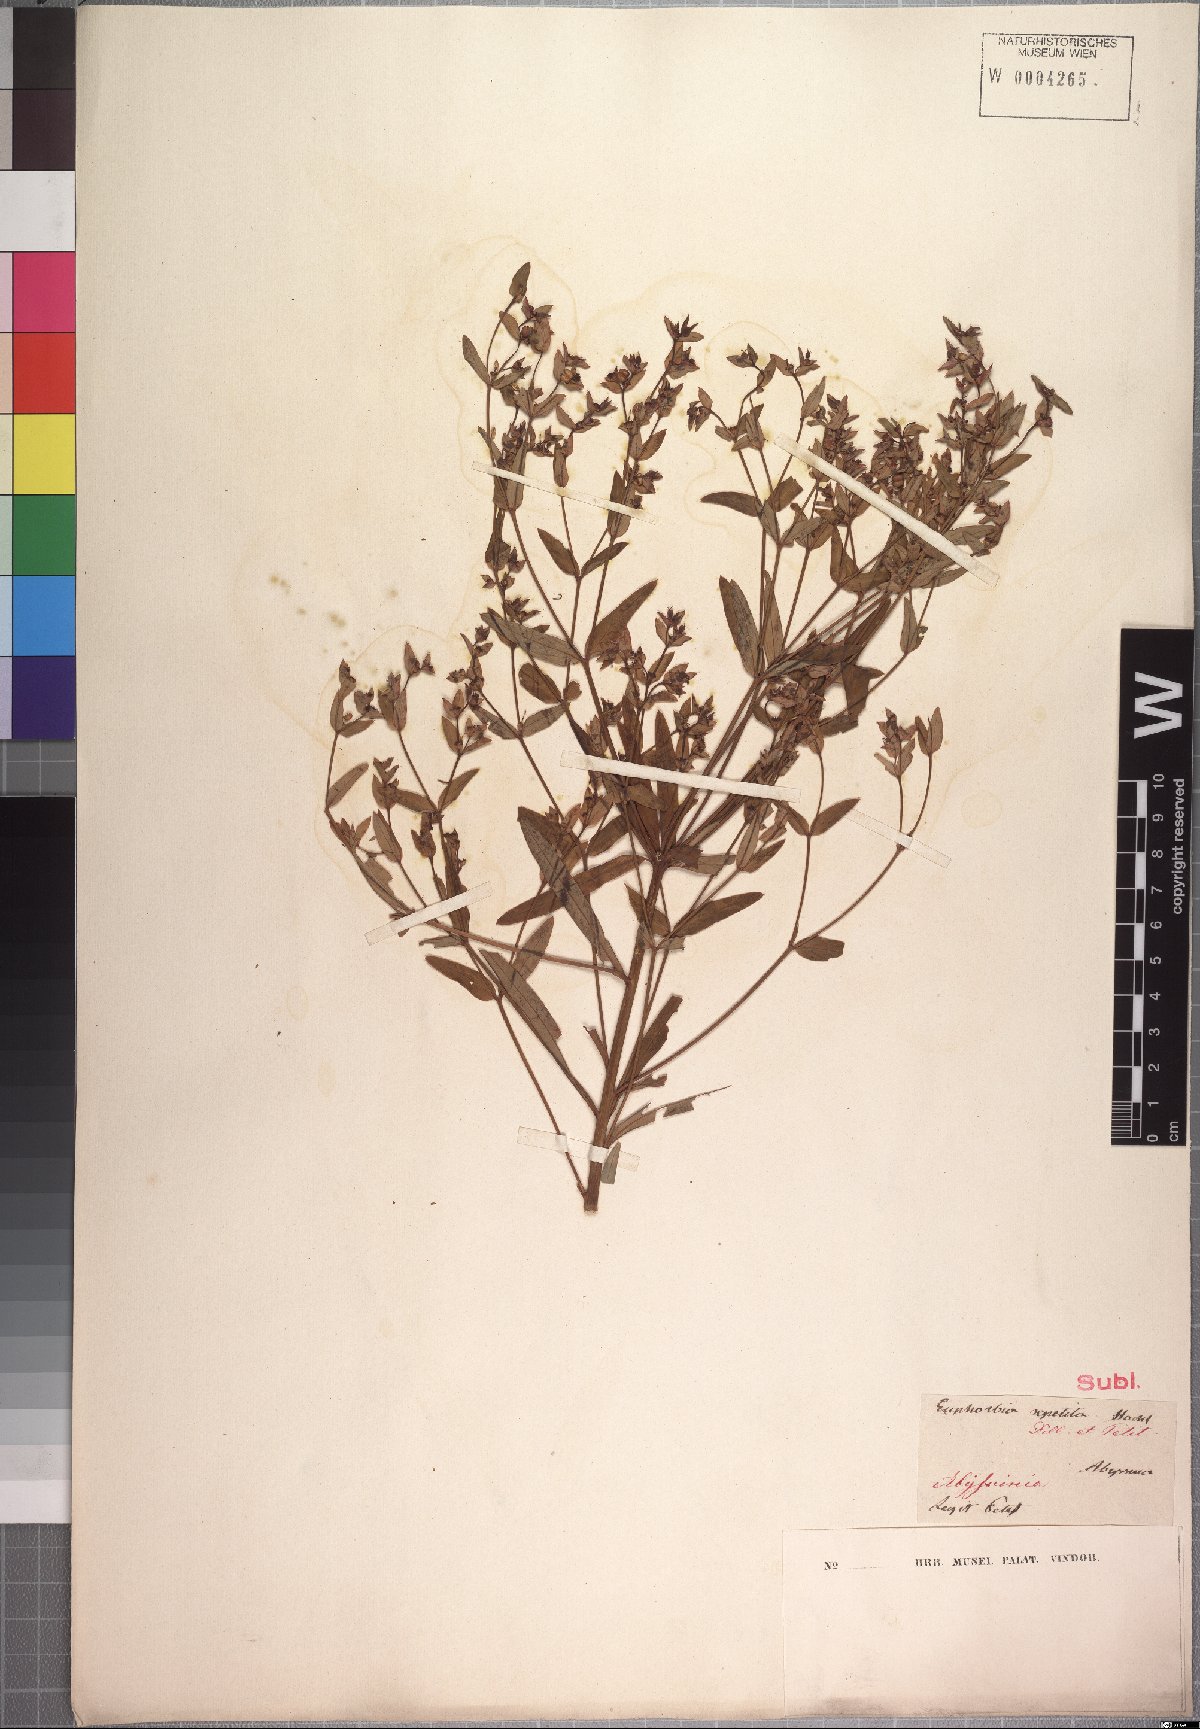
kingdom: Plantae
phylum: Tracheophyta
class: Magnoliopsida
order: Malpighiales
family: Euphorbiaceae
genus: Euphorbia
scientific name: Euphorbia repetita
